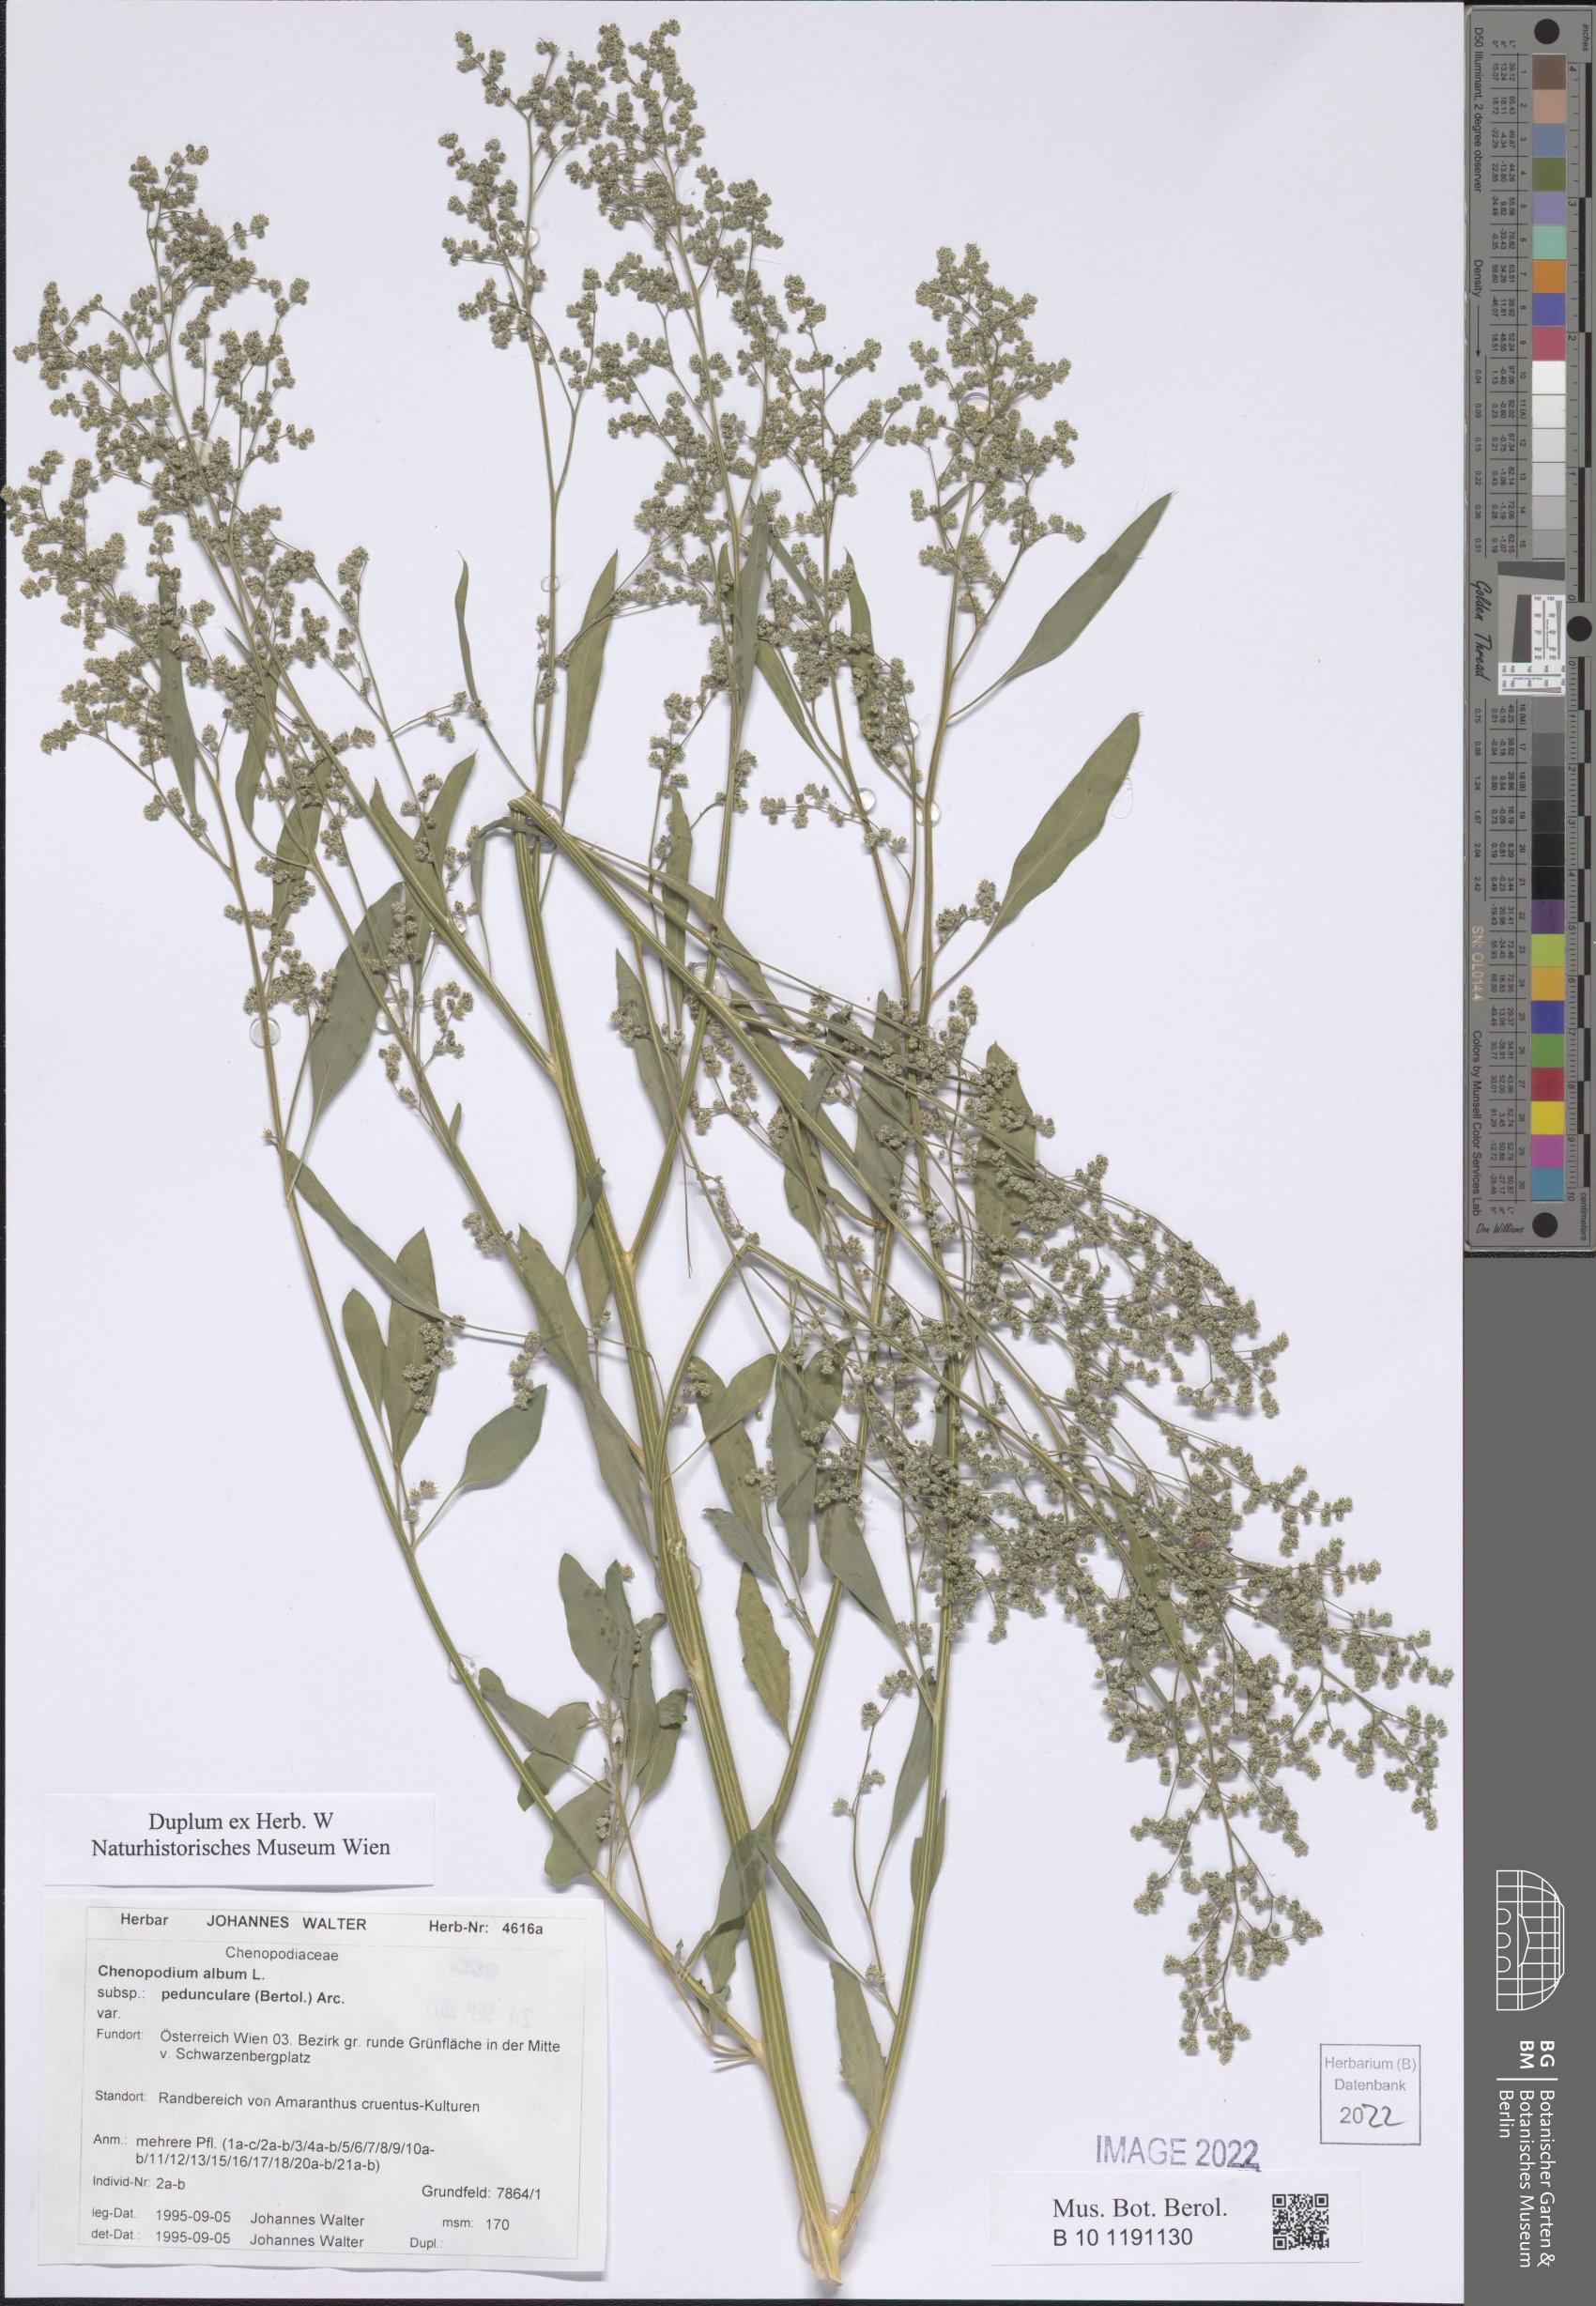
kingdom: Plantae
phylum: Tracheophyta
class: Magnoliopsida
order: Caryophyllales
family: Amaranthaceae
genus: Chenopodium
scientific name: Chenopodium album
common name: Fat-hen
